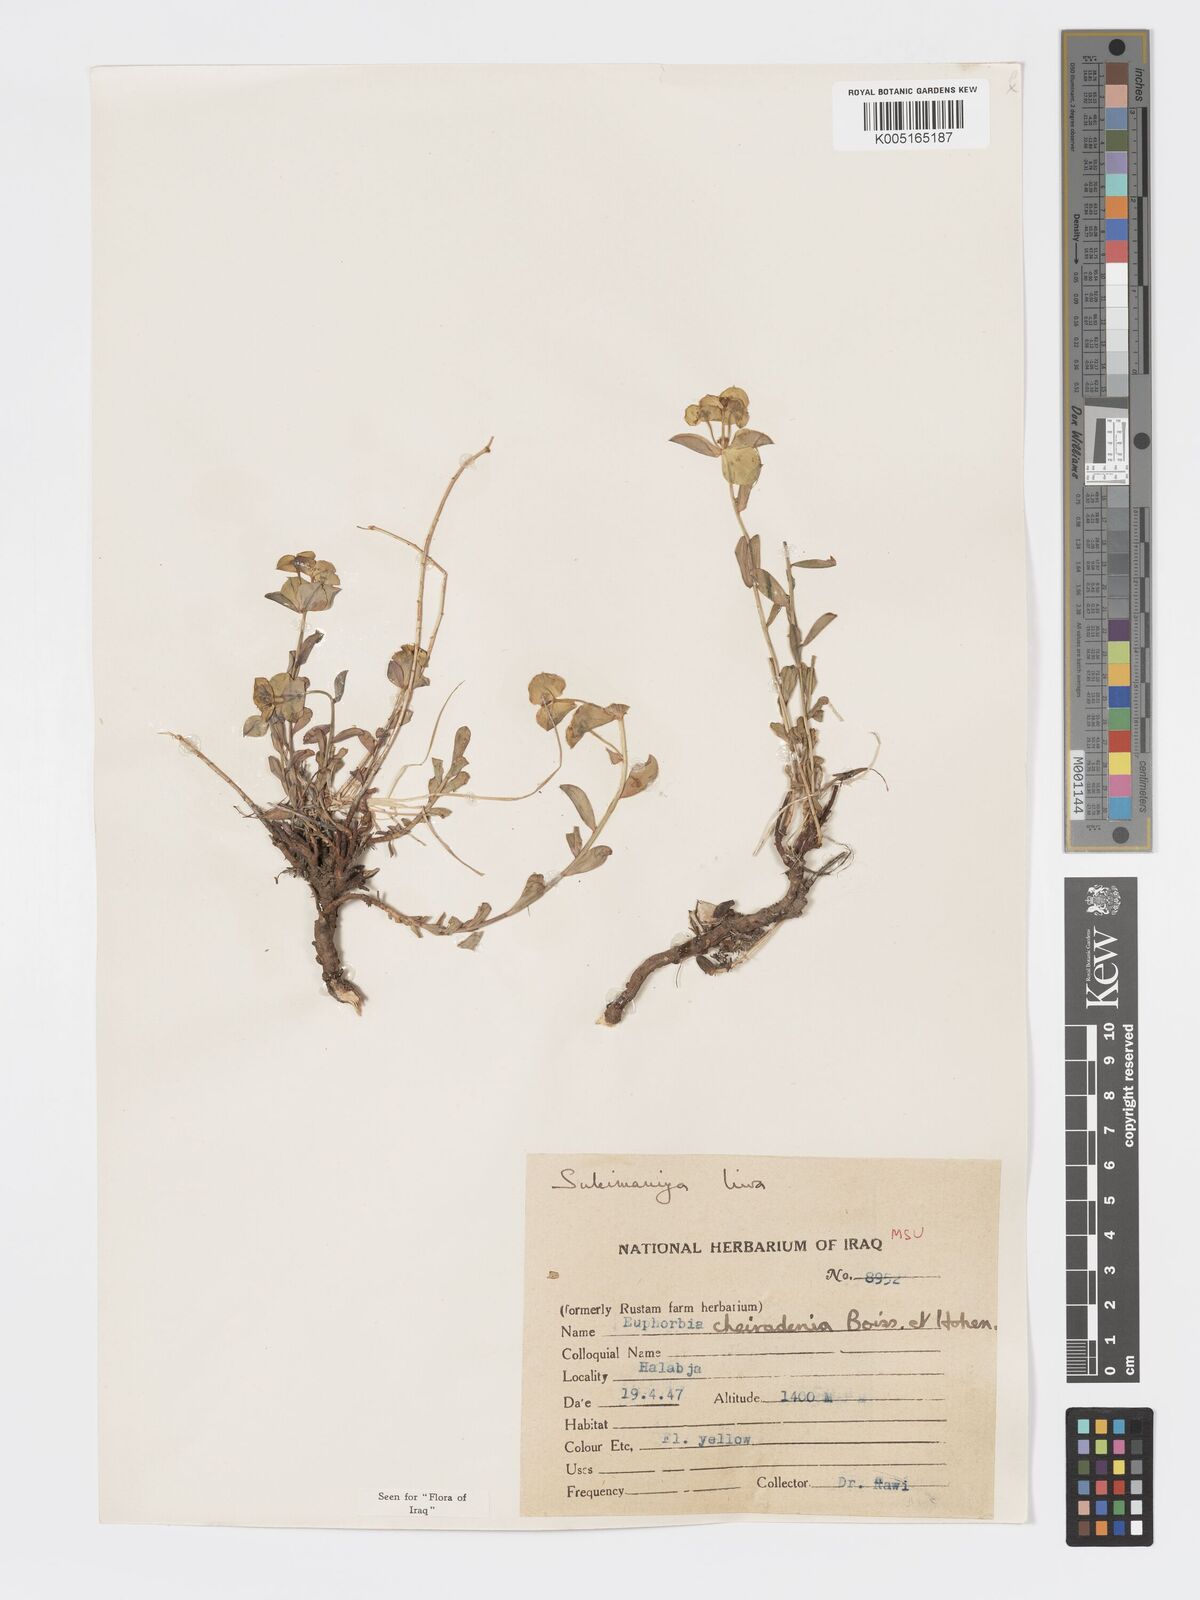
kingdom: Plantae
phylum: Tracheophyta
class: Magnoliopsida
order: Malpighiales
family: Euphorbiaceae
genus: Euphorbia
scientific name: Euphorbia cheiradenia
